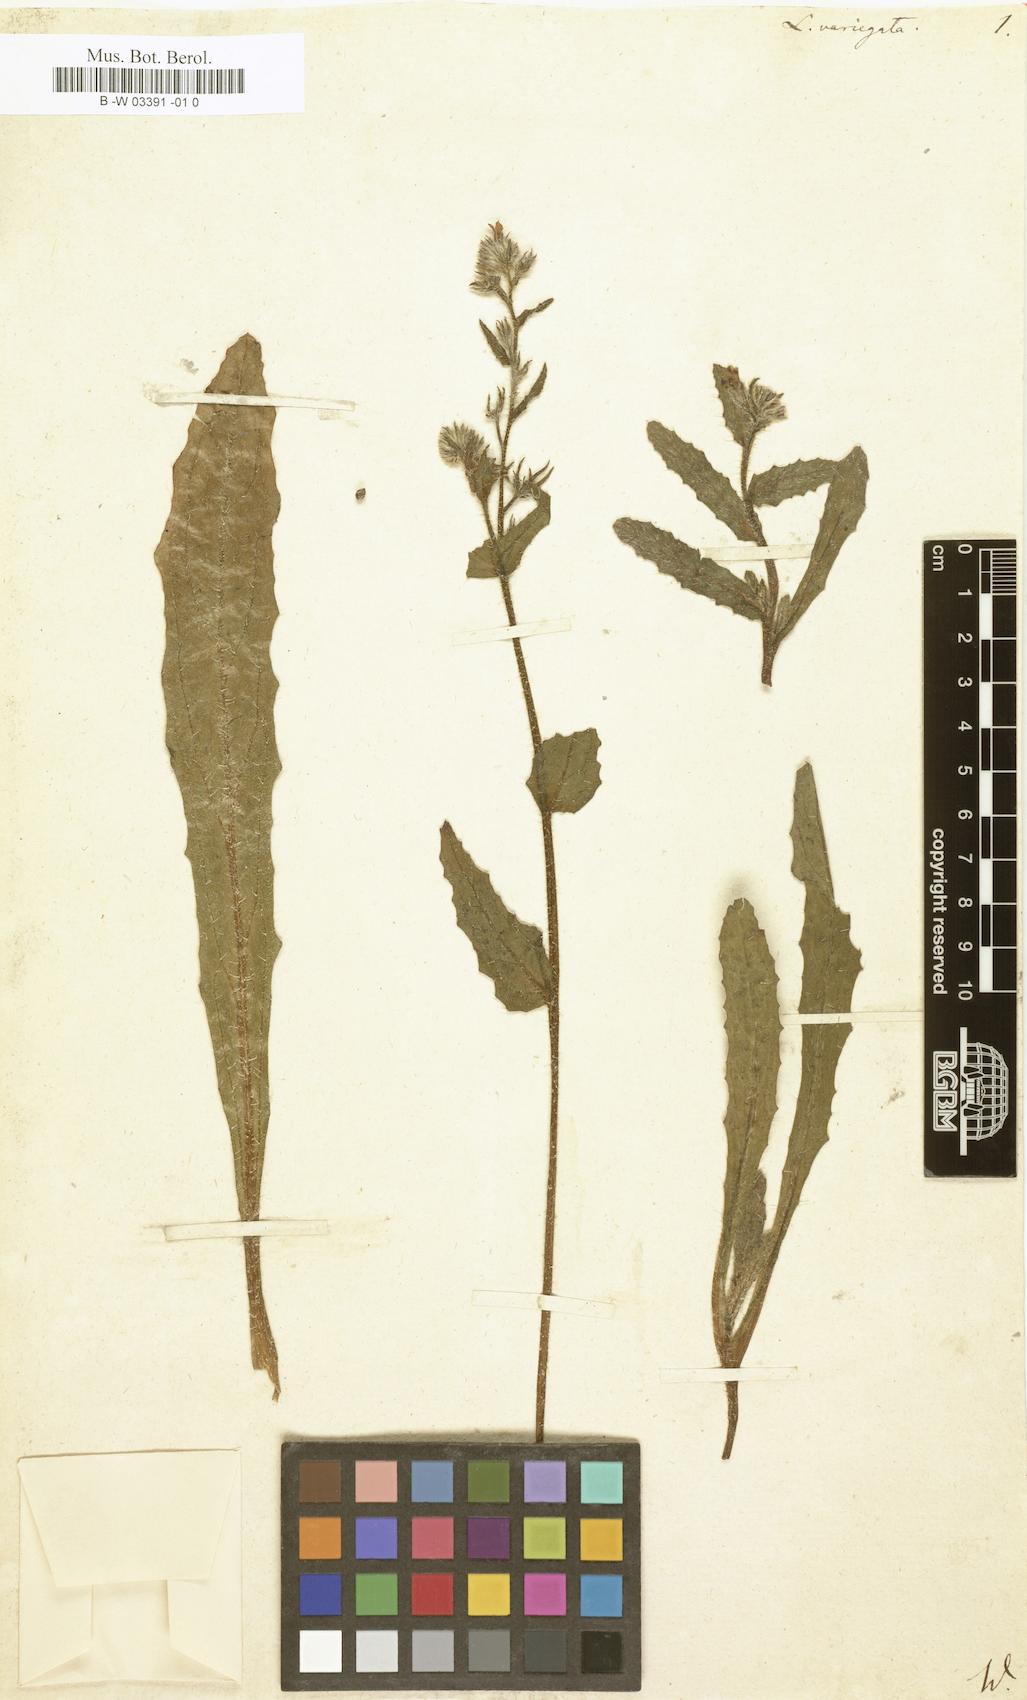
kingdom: Plantae
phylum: Tracheophyta
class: Magnoliopsida
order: Boraginales
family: Boraginaceae
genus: Anchusella
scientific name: Anchusella variegata
